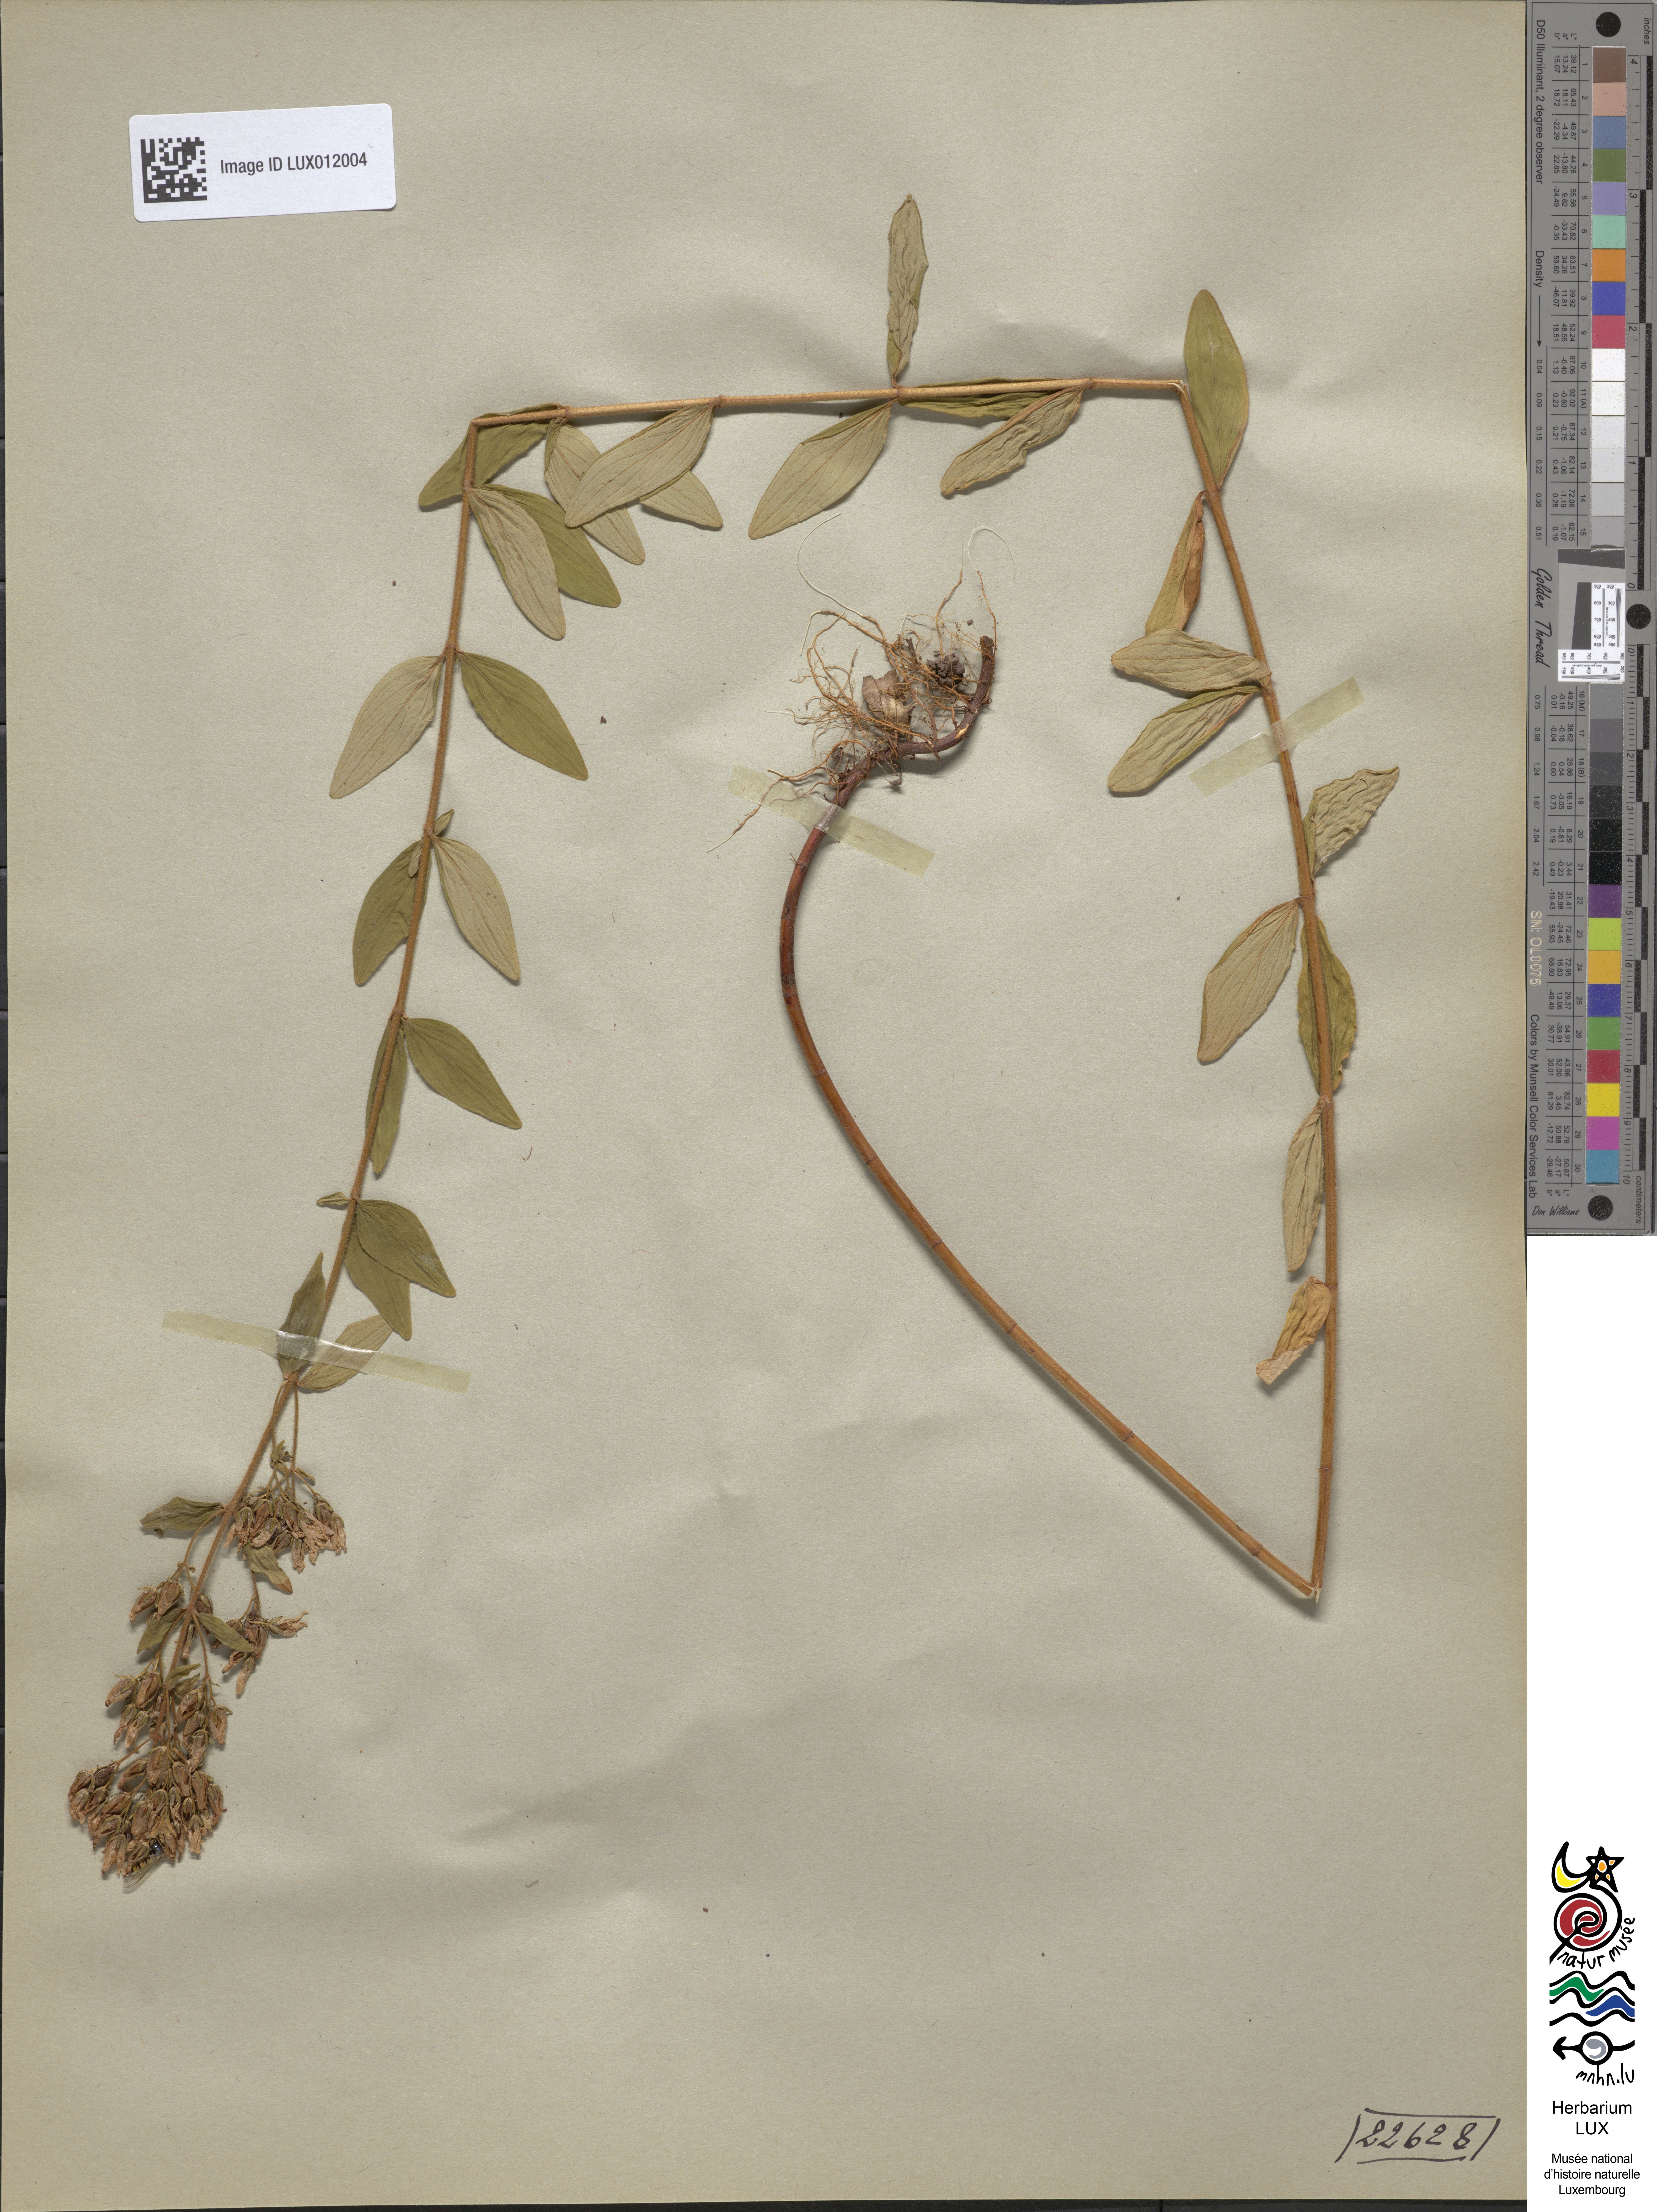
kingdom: Plantae
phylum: Tracheophyta
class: Magnoliopsida
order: Malpighiales
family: Hypericaceae
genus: Hypericum
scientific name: Hypericum hirsutum
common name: Hairy st. john's-wort
